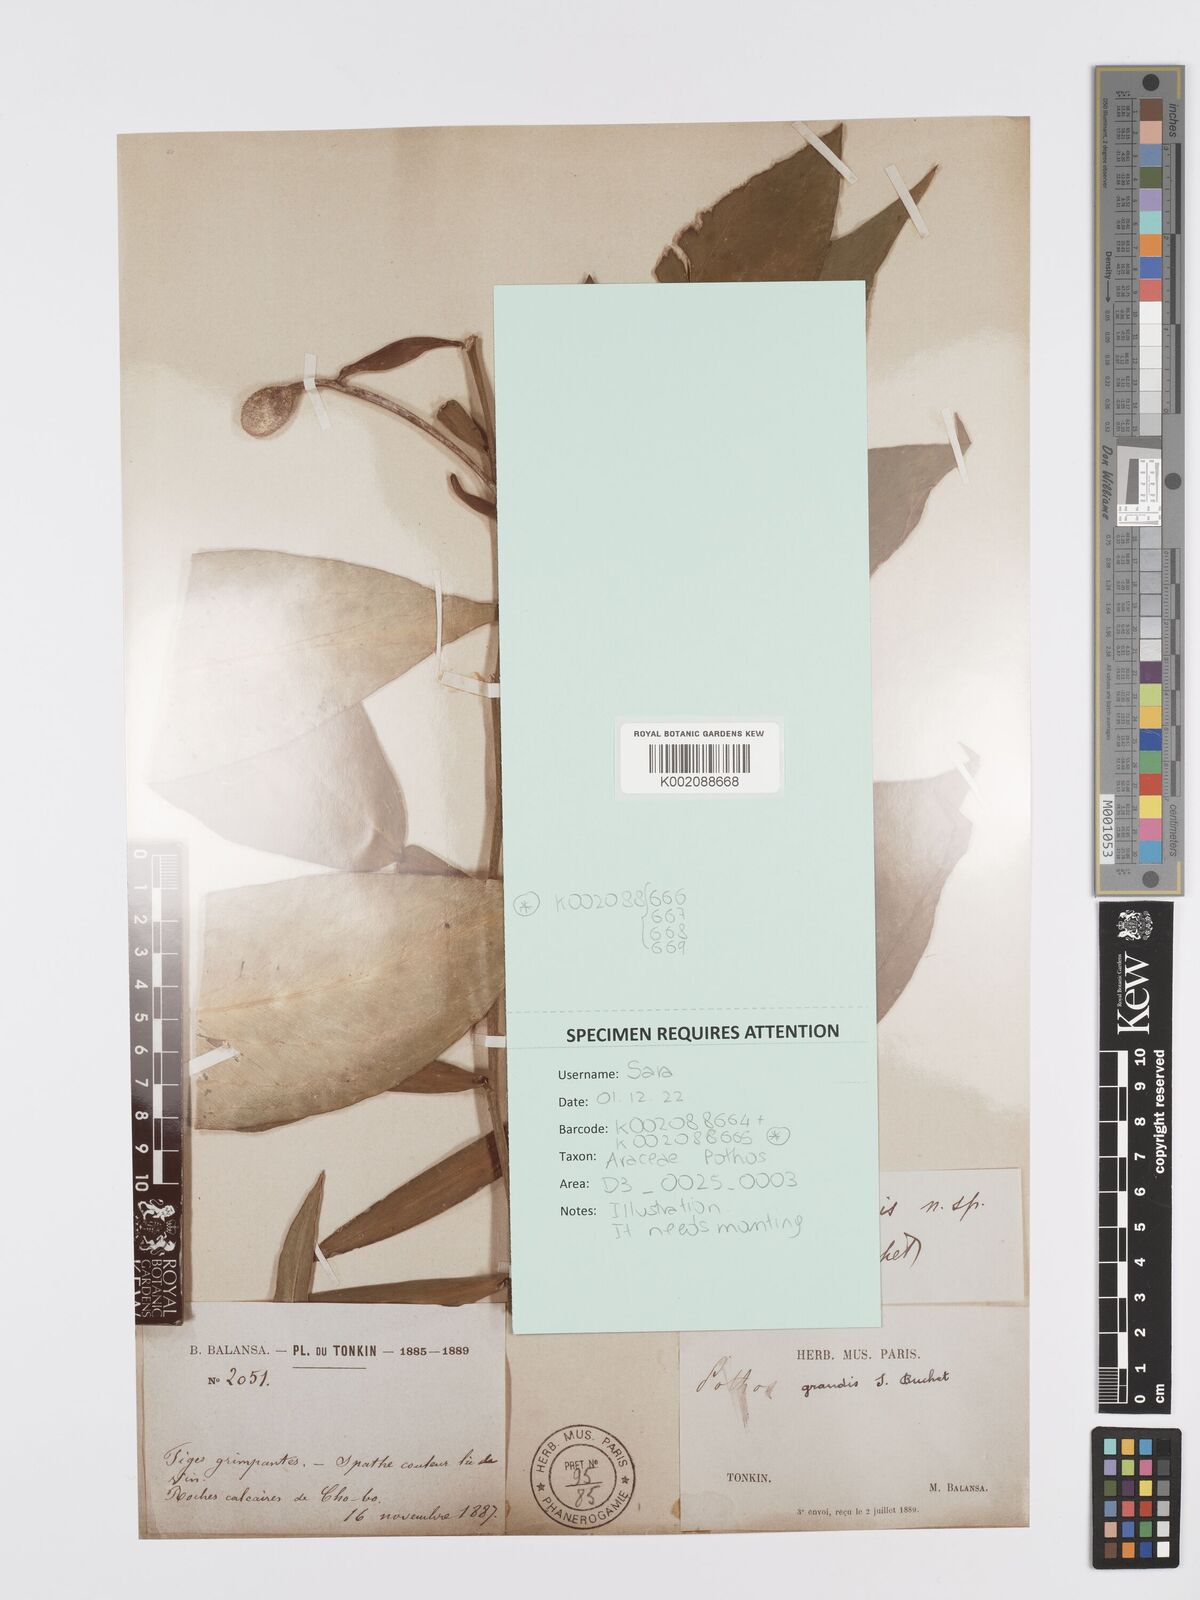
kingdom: Plantae
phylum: Tracheophyta
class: Liliopsida
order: Alismatales
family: Araceae
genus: Pothos
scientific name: Pothos grandis
